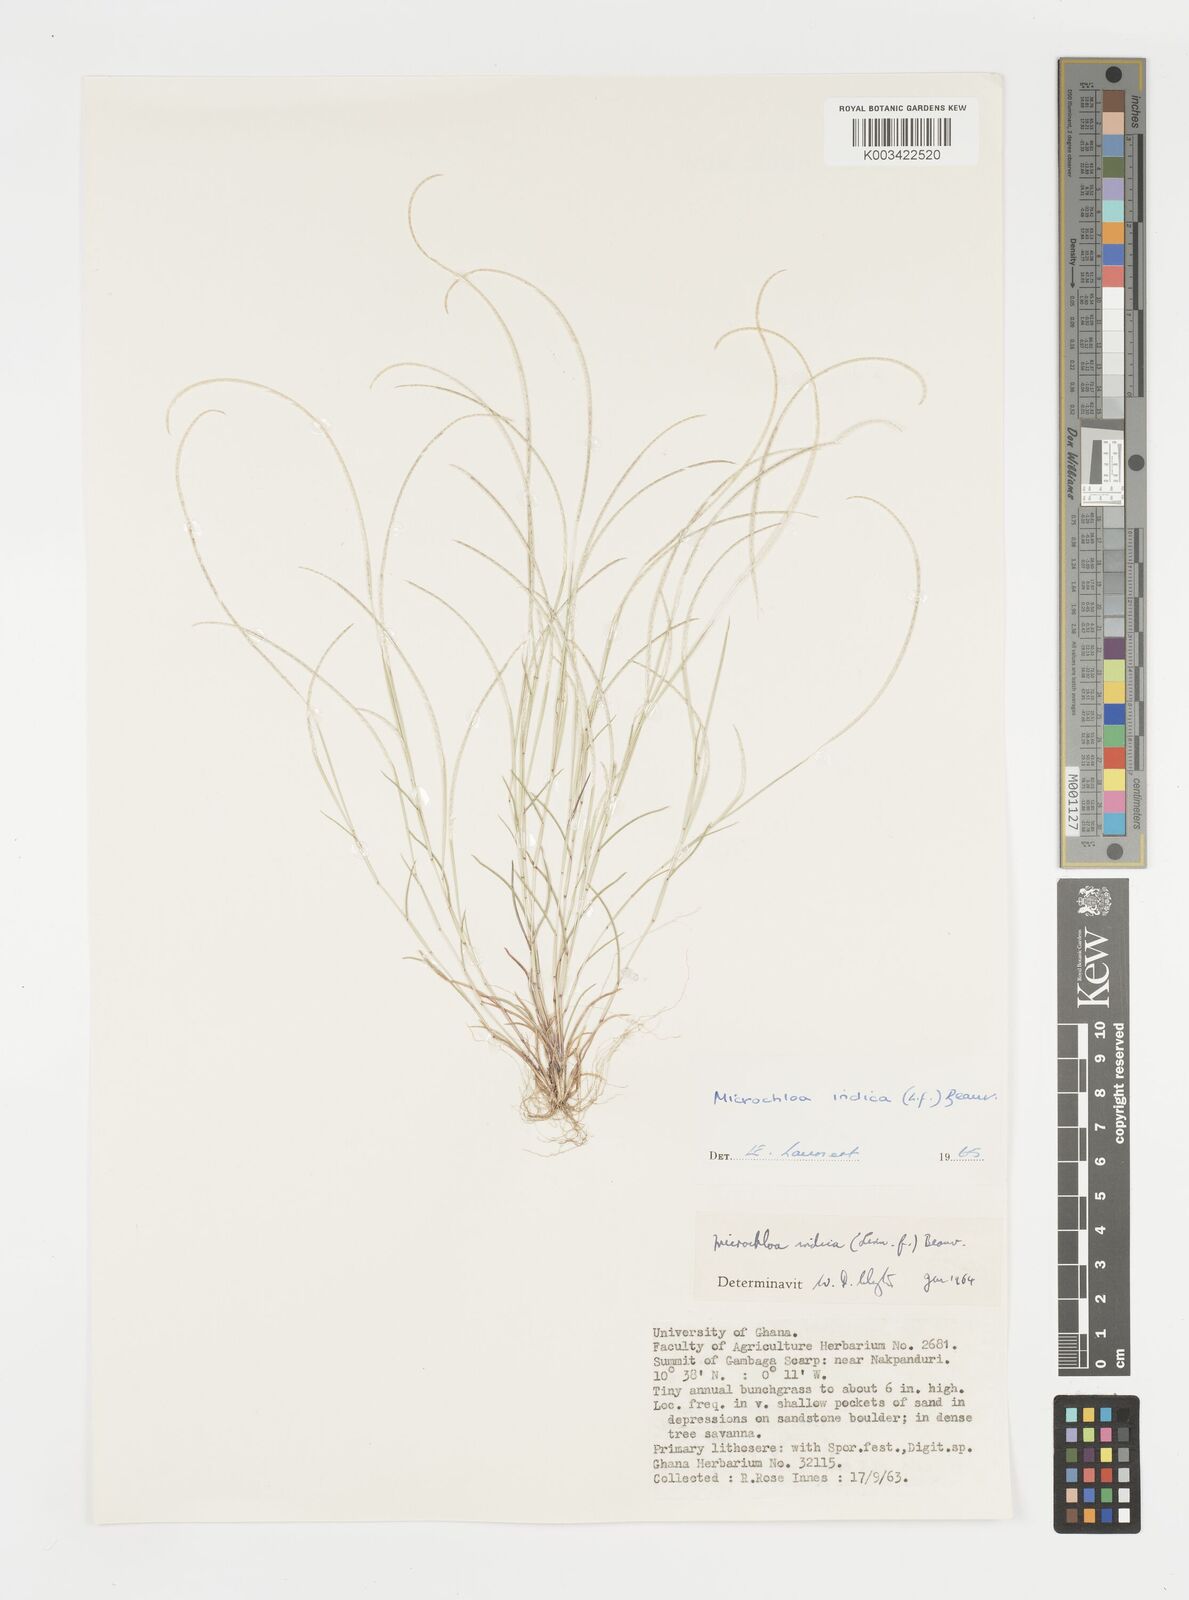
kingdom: Plantae
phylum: Tracheophyta
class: Liliopsida
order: Poales
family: Poaceae
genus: Microchloa
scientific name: Microchloa indica
